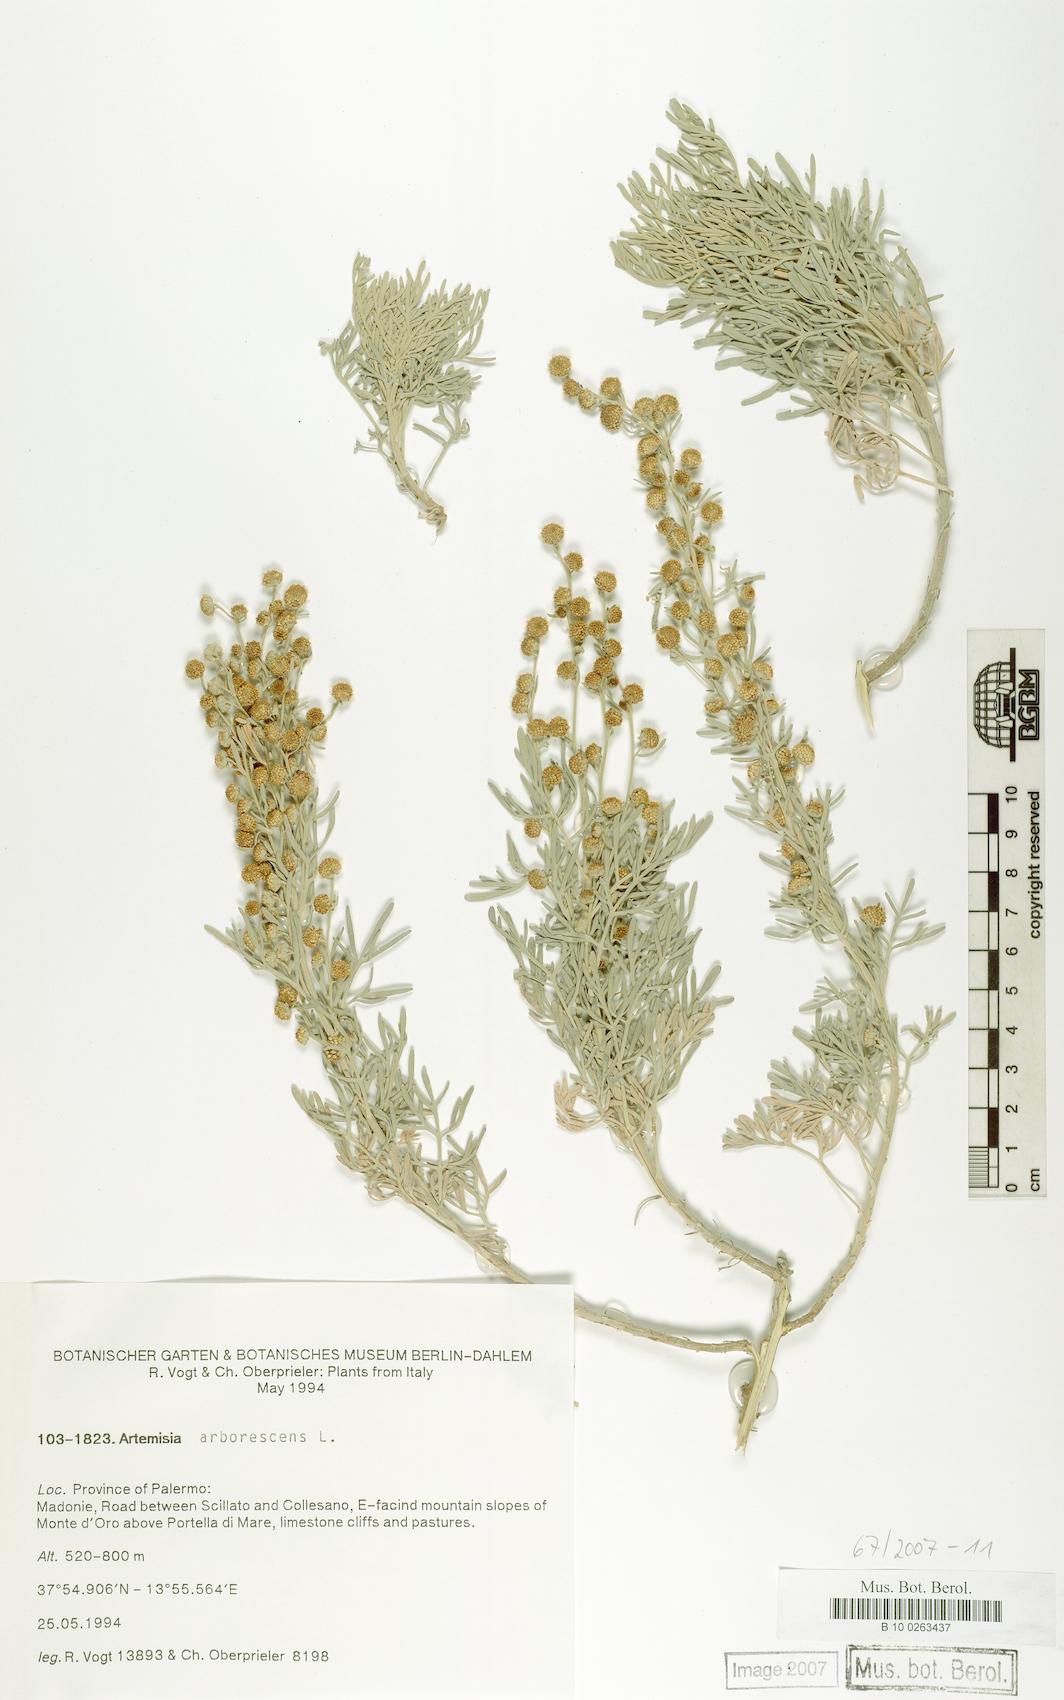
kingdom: Plantae
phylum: Tracheophyta
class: Magnoliopsida
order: Asterales
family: Asteraceae
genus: Artemisia
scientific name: Artemisia arborescens
